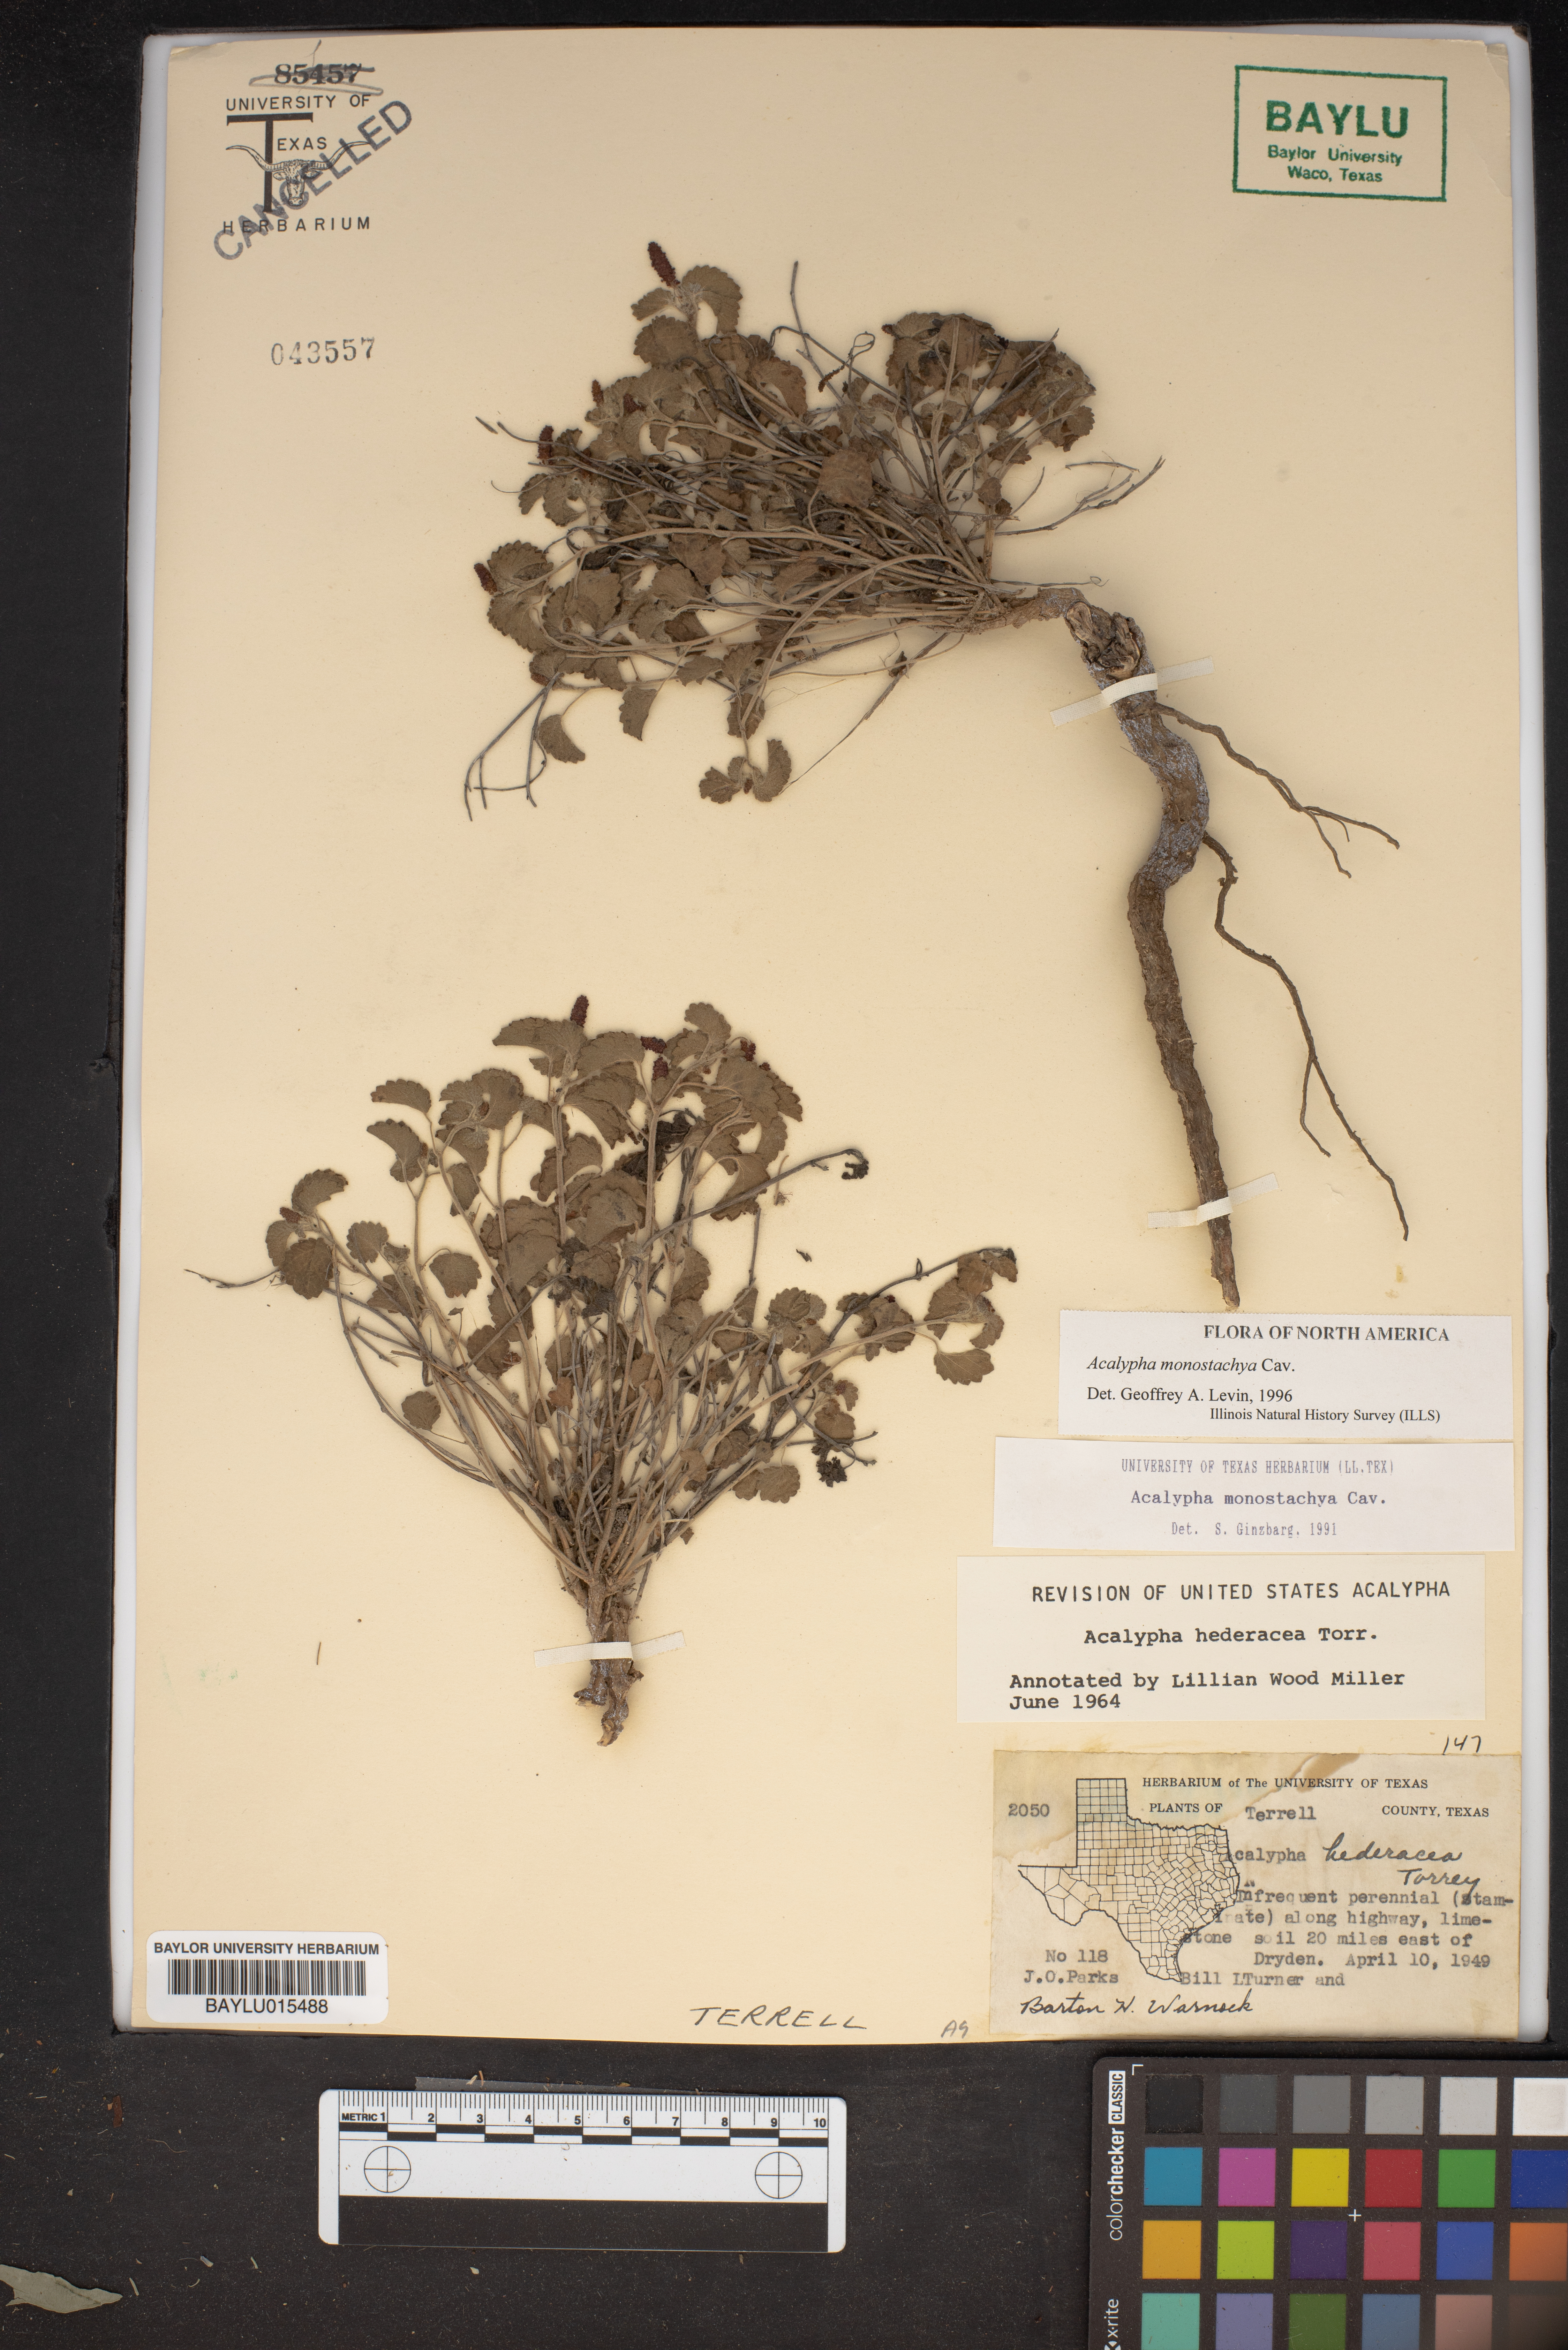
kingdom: Plantae
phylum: Tracheophyta
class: Magnoliopsida
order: Malpighiales
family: Euphorbiaceae
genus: Acalypha
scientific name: Acalypha monostachya
